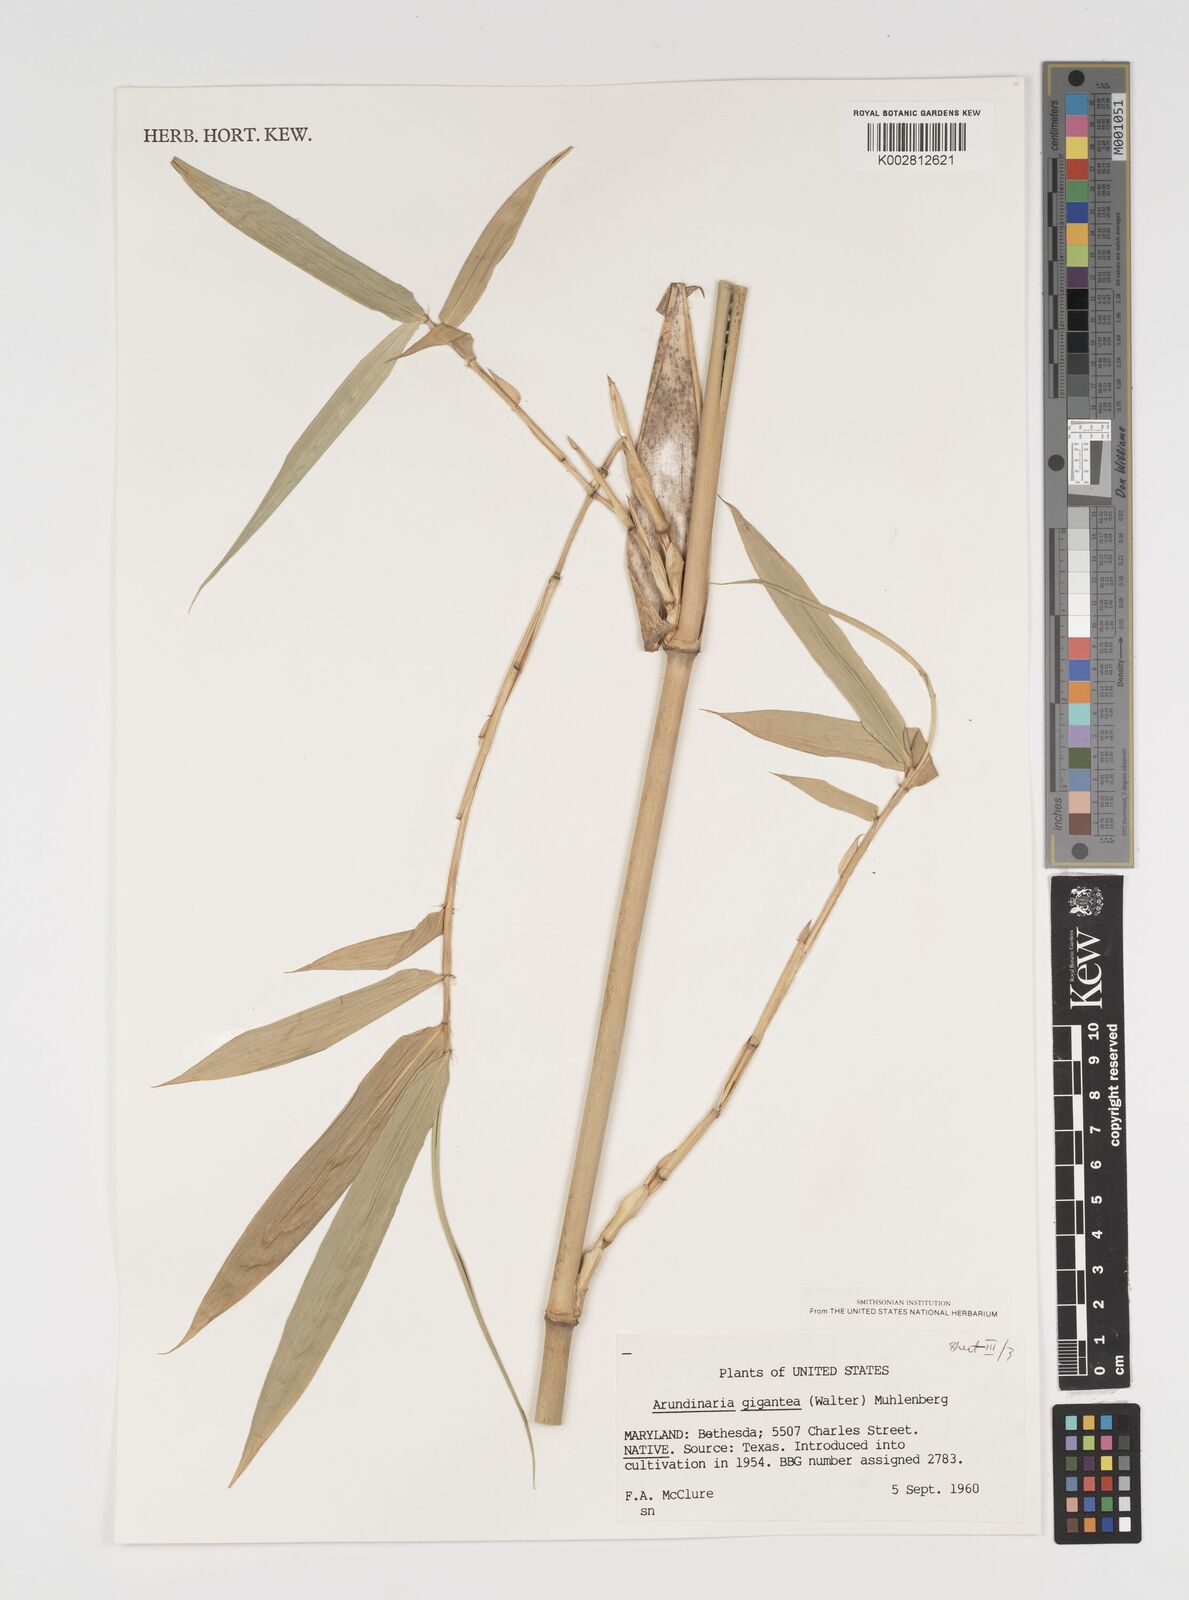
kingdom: Plantae
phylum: Tracheophyta
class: Liliopsida
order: Poales
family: Poaceae
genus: Arundinaria
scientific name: Arundinaria
